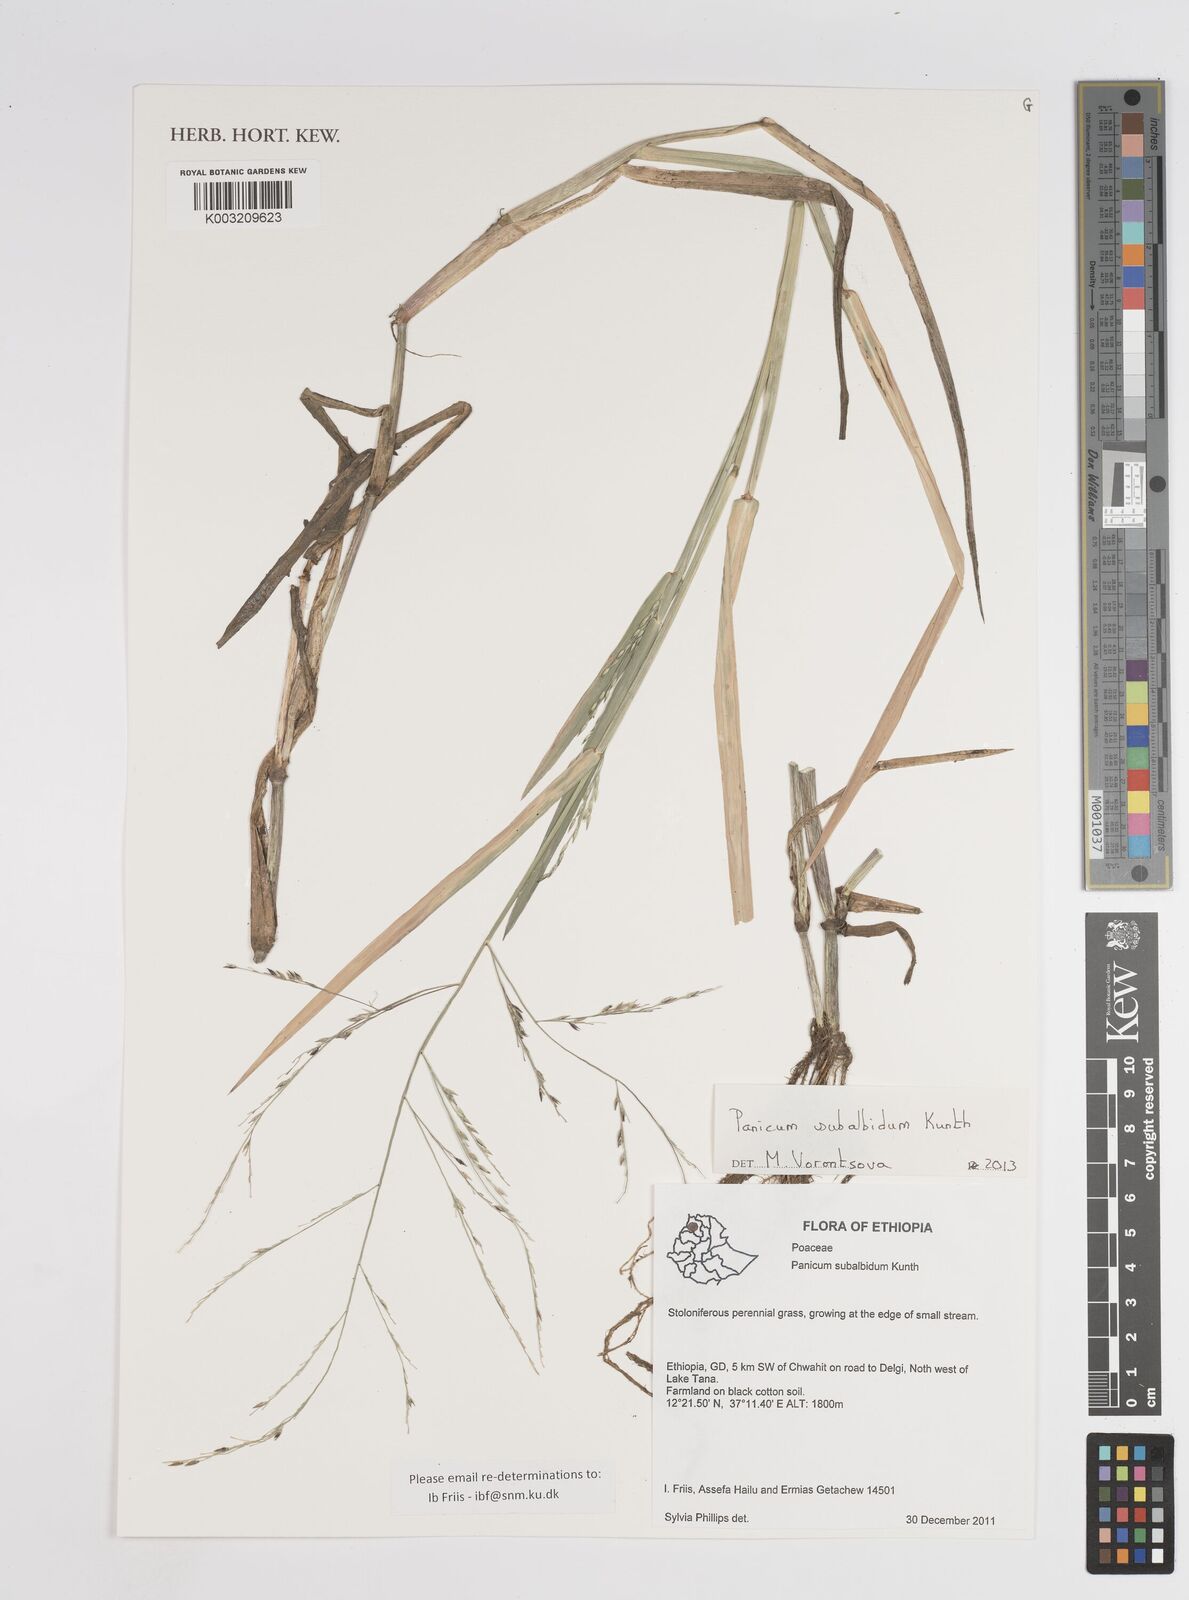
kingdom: Plantae
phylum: Tracheophyta
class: Liliopsida
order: Poales
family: Poaceae
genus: Panicum
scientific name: Panicum subalbidum
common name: Elbow buffalo grass
